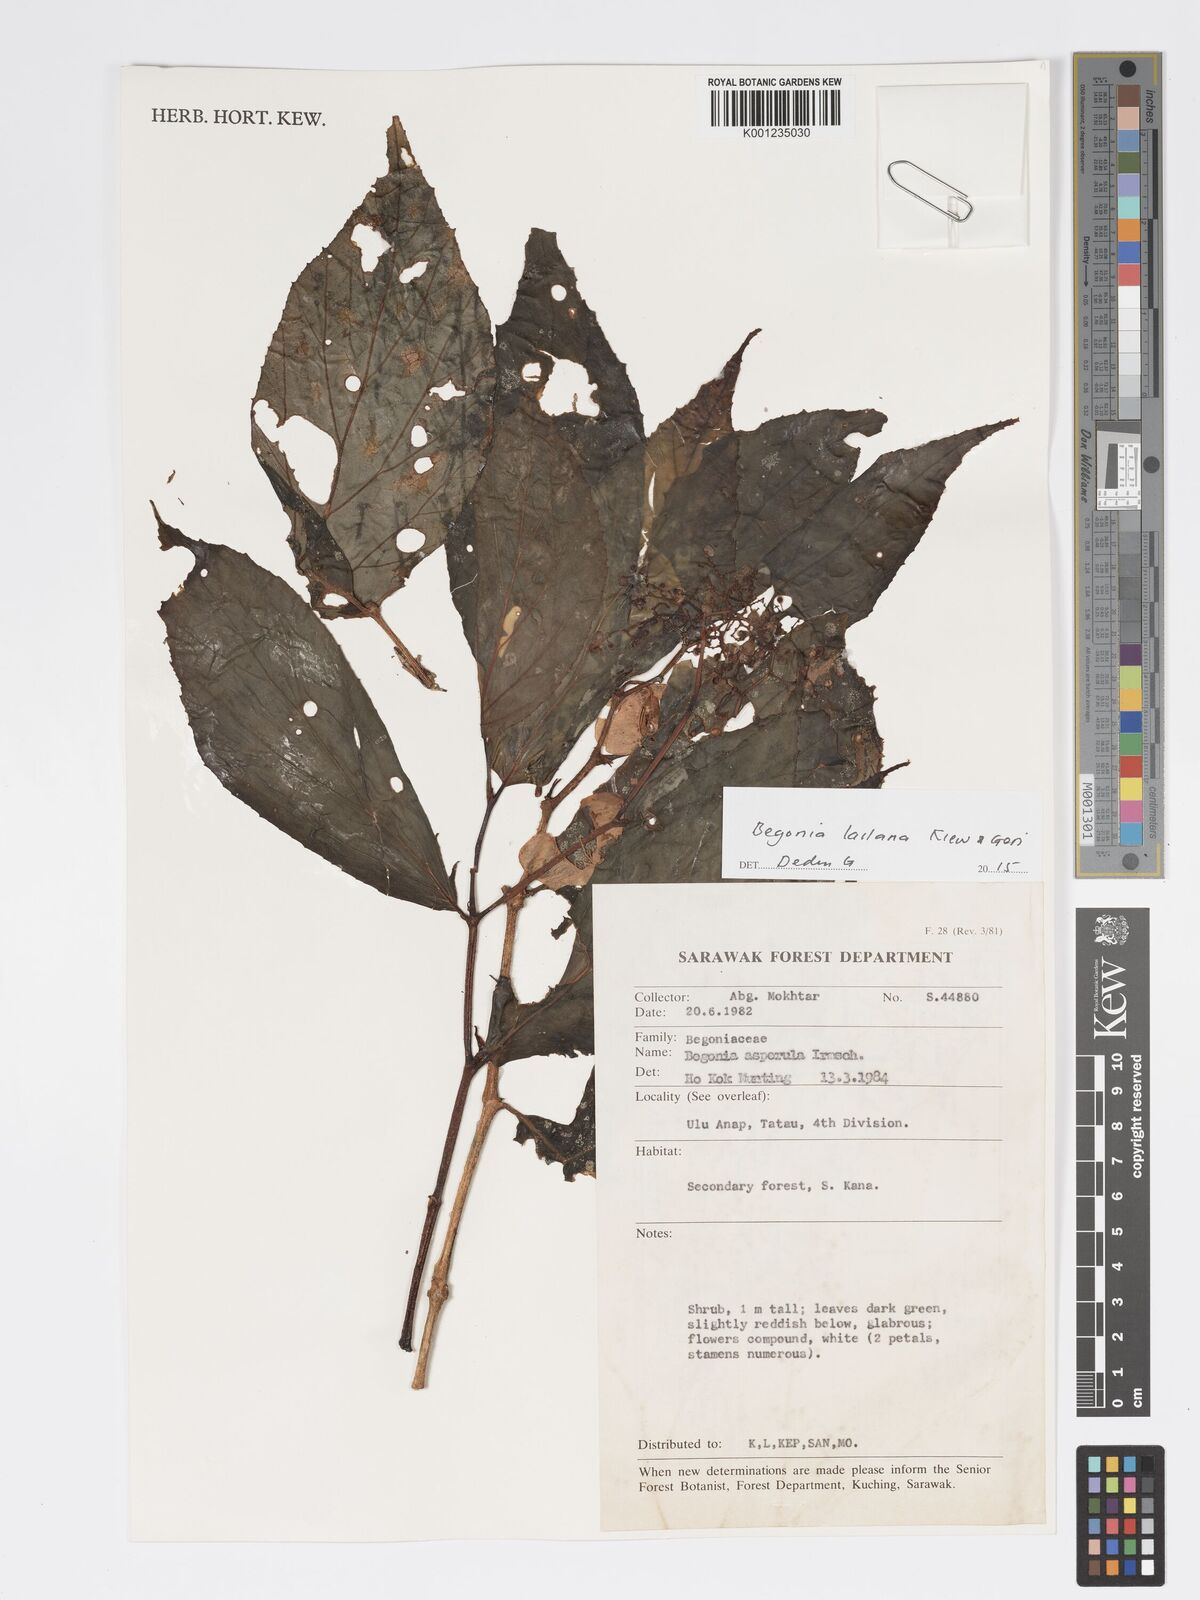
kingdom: Plantae
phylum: Tracheophyta
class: Magnoliopsida
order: Cucurbitales
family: Begoniaceae
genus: Begonia
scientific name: Begonia lailana
